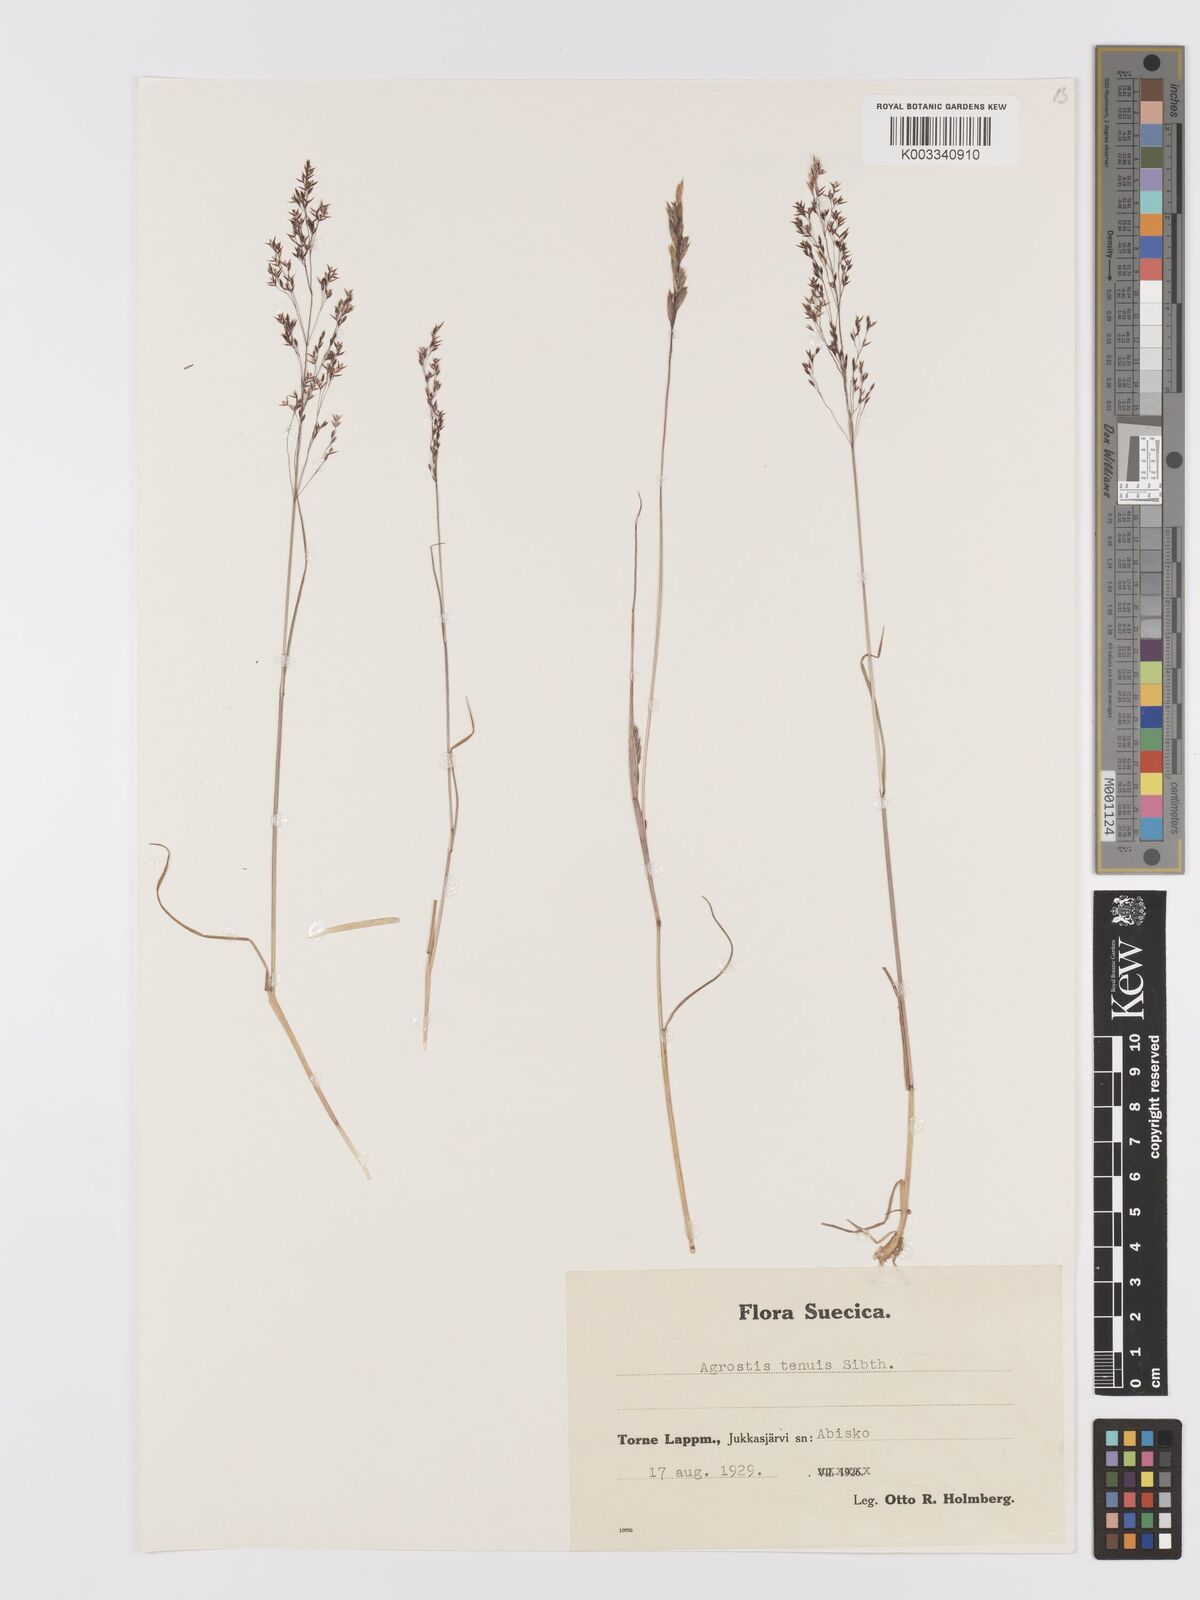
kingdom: Plantae
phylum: Tracheophyta
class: Liliopsida
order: Poales
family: Poaceae
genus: Agrostis
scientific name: Agrostis capillaris
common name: Colonial bentgrass
